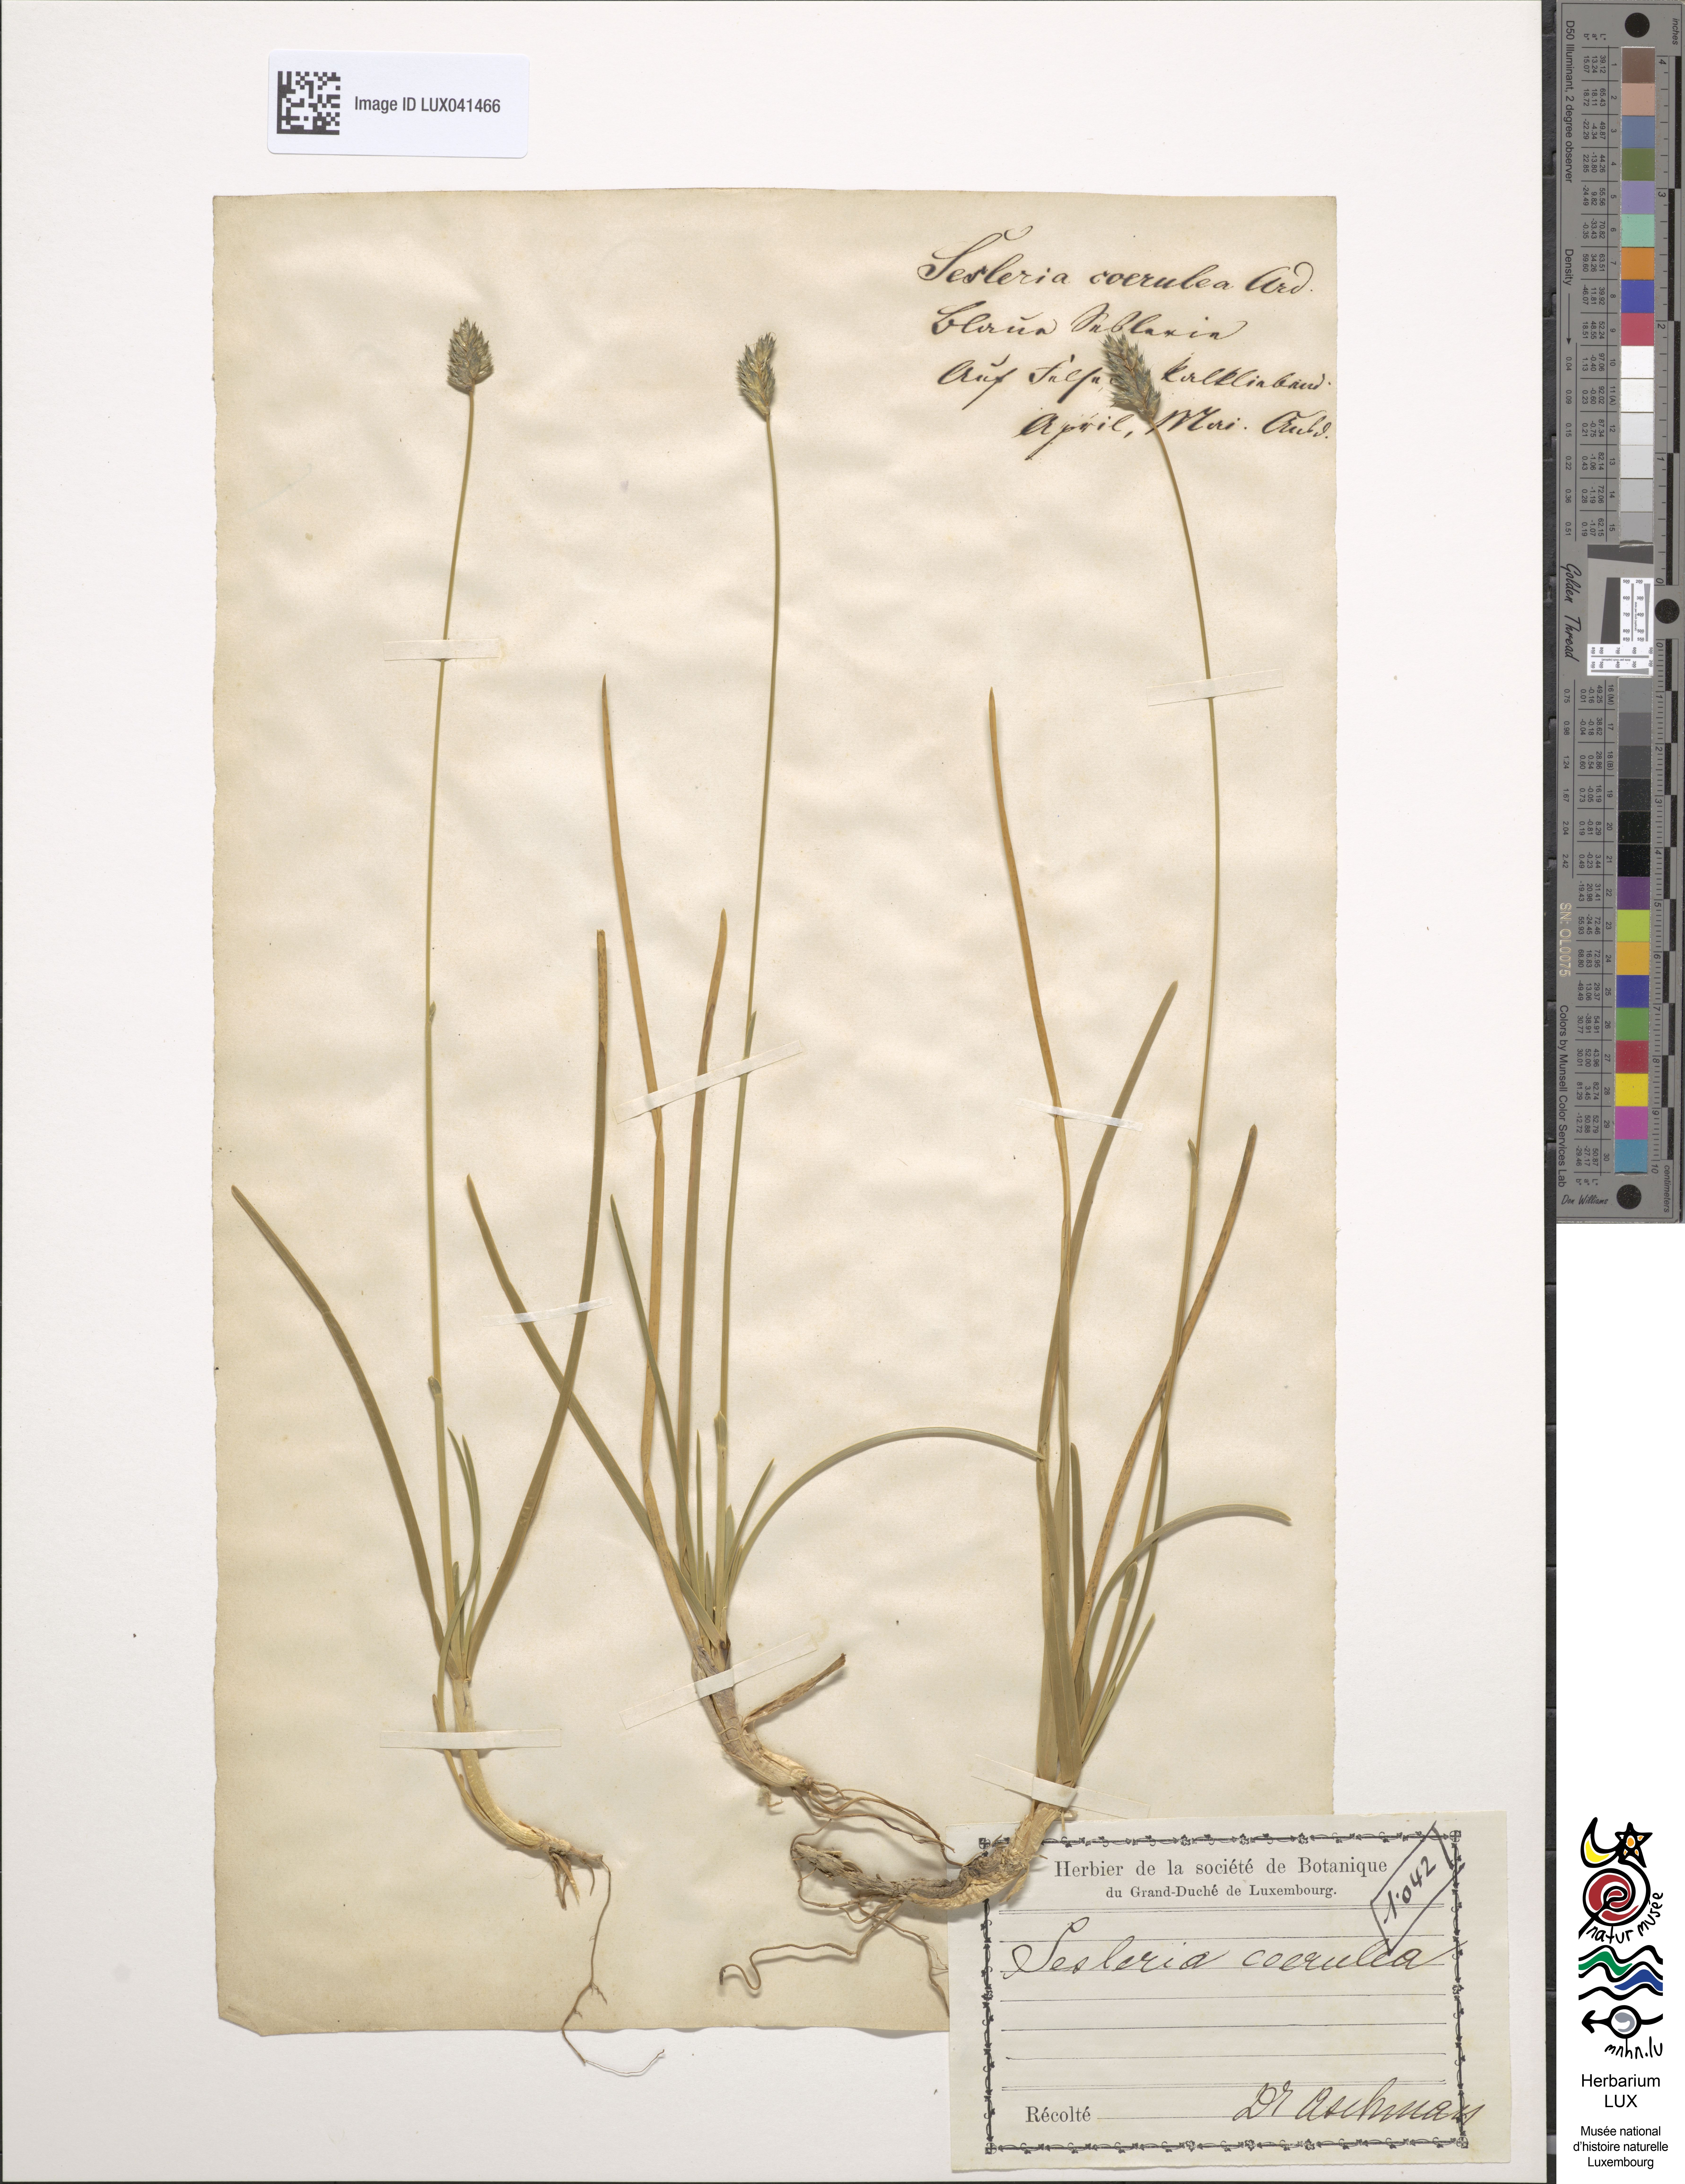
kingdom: Plantae
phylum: Tracheophyta
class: Liliopsida
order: Poales
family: Poaceae
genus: Sesleria
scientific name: Sesleria caerulea
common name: Blue moor-grass
